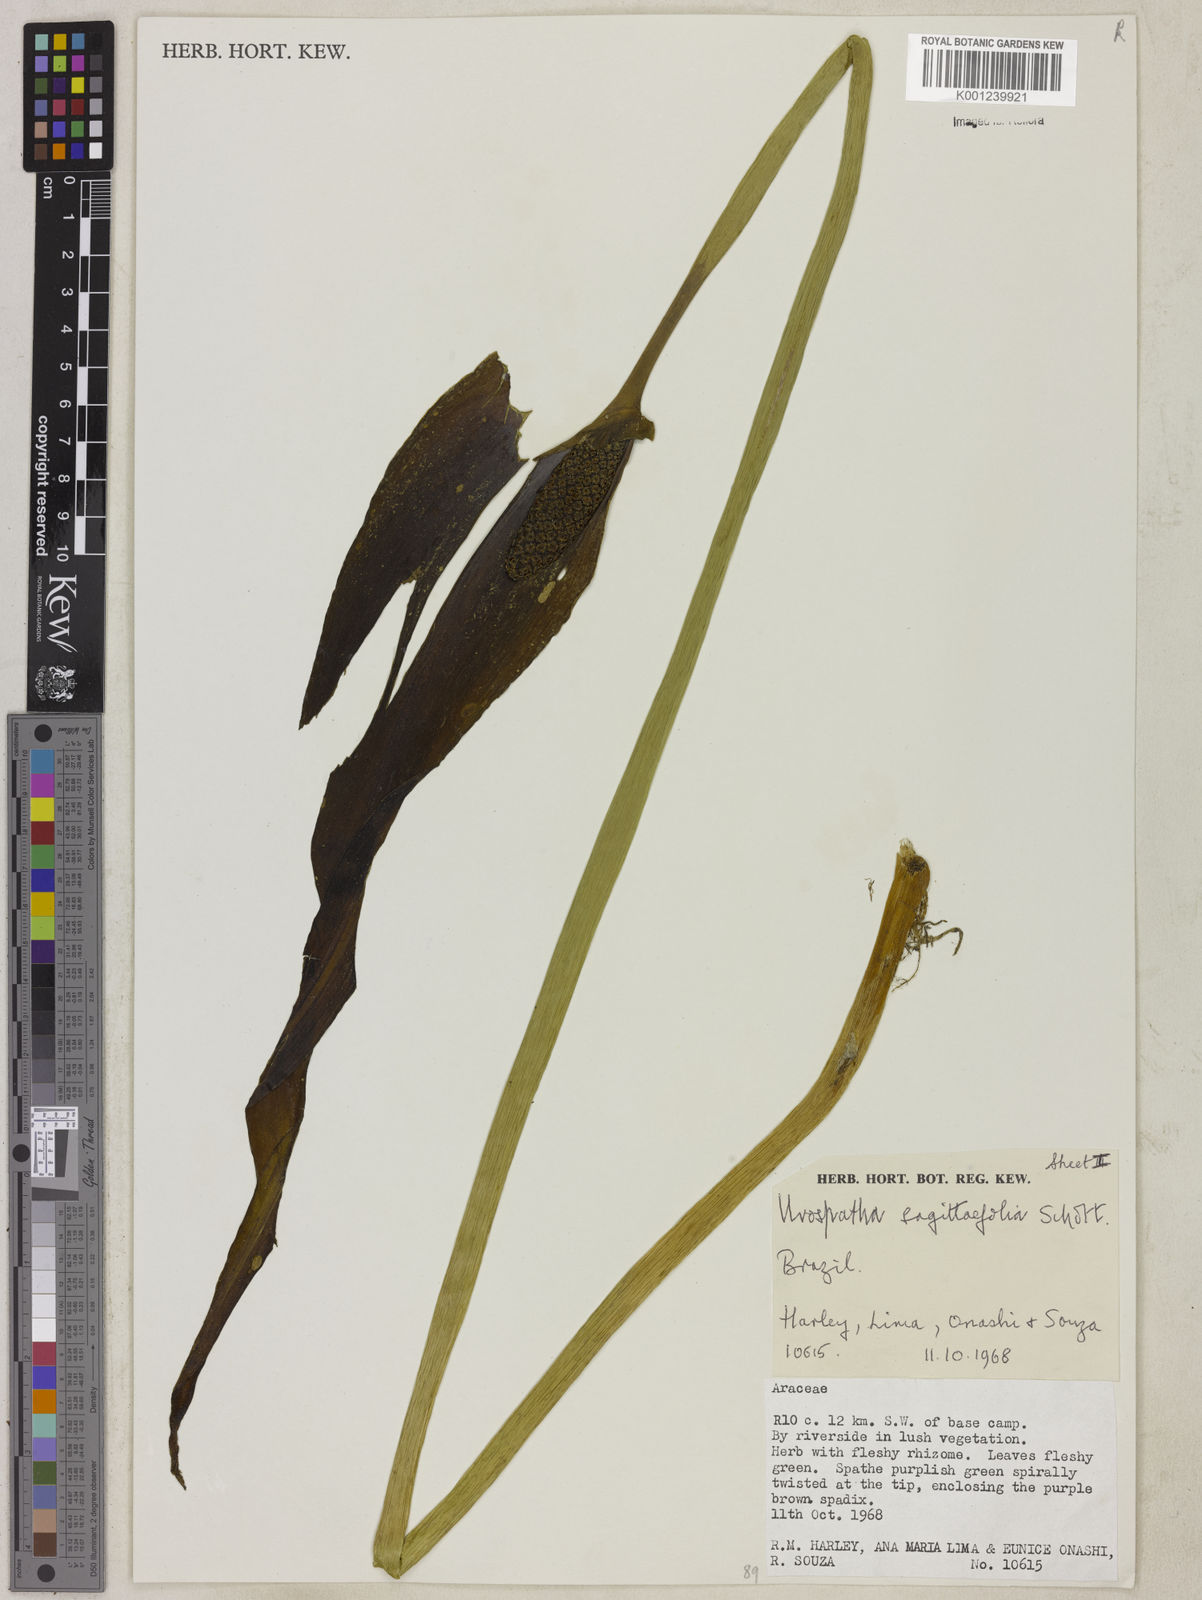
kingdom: Plantae
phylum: Tracheophyta
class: Liliopsida
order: Alismatales
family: Araceae
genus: Urospatha
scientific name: Urospatha sagittifolia
